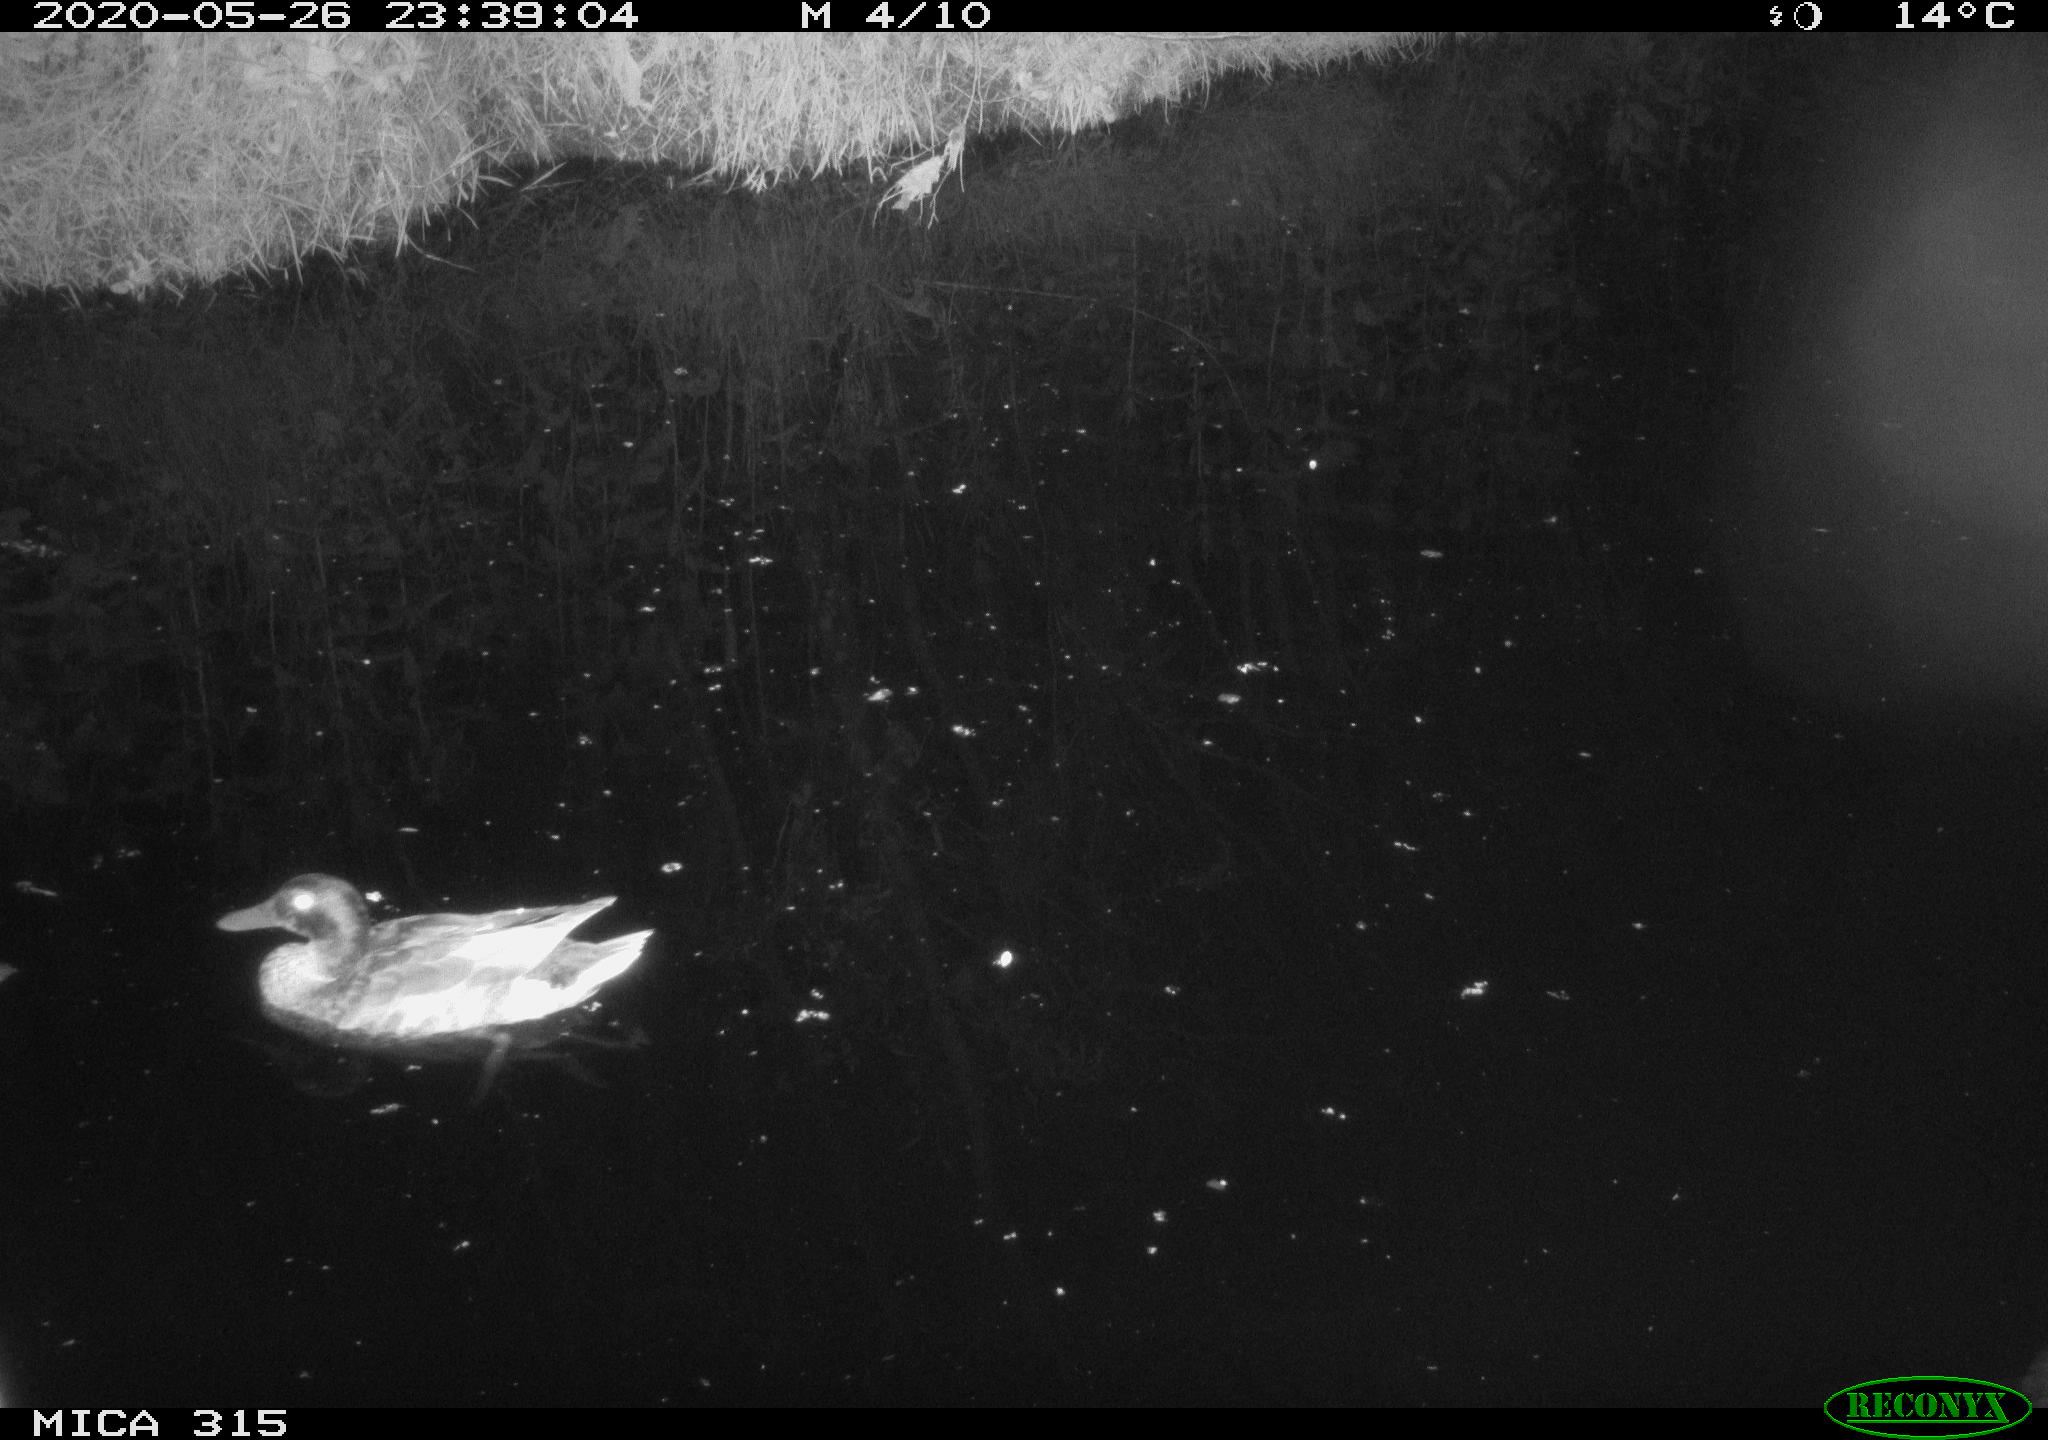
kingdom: Animalia
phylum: Chordata
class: Aves
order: Anseriformes
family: Anatidae
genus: Anas
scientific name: Anas platyrhynchos
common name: Mallard
